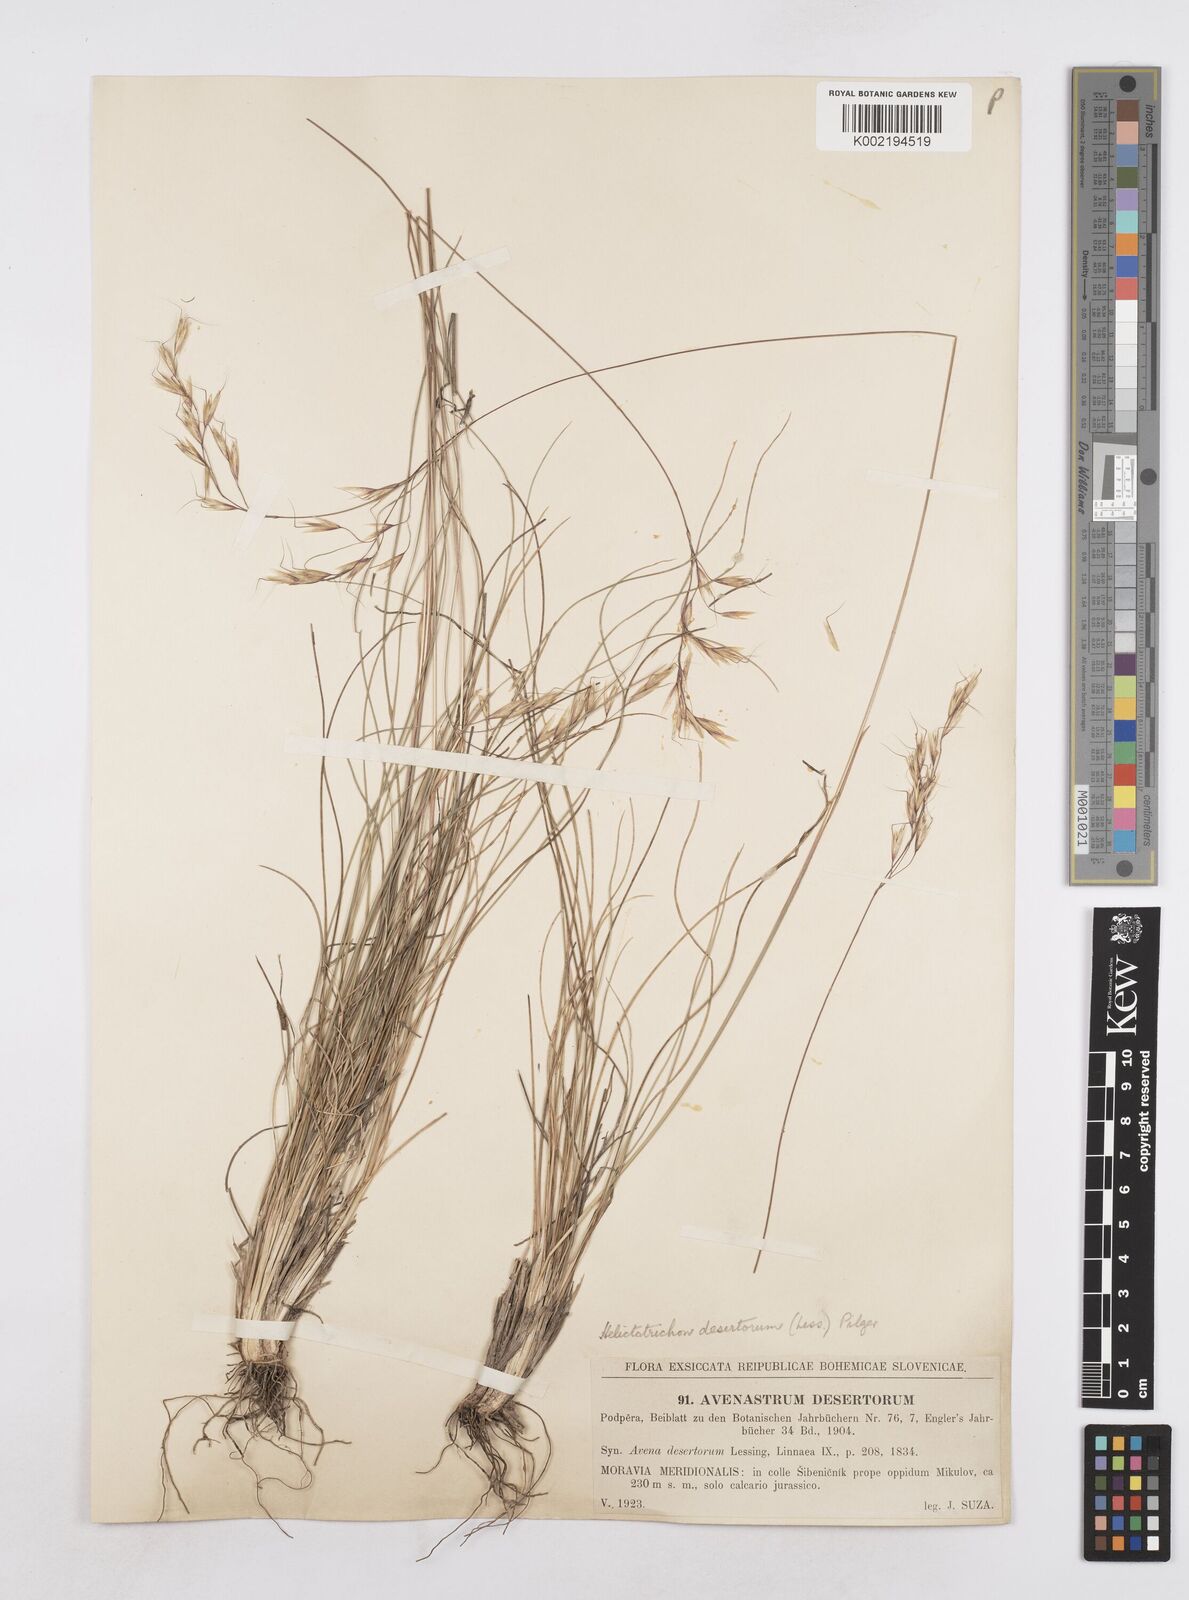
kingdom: Plantae
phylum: Tracheophyta
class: Liliopsida
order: Poales
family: Poaceae
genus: Helictotrichon
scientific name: Helictotrichon desertorum
